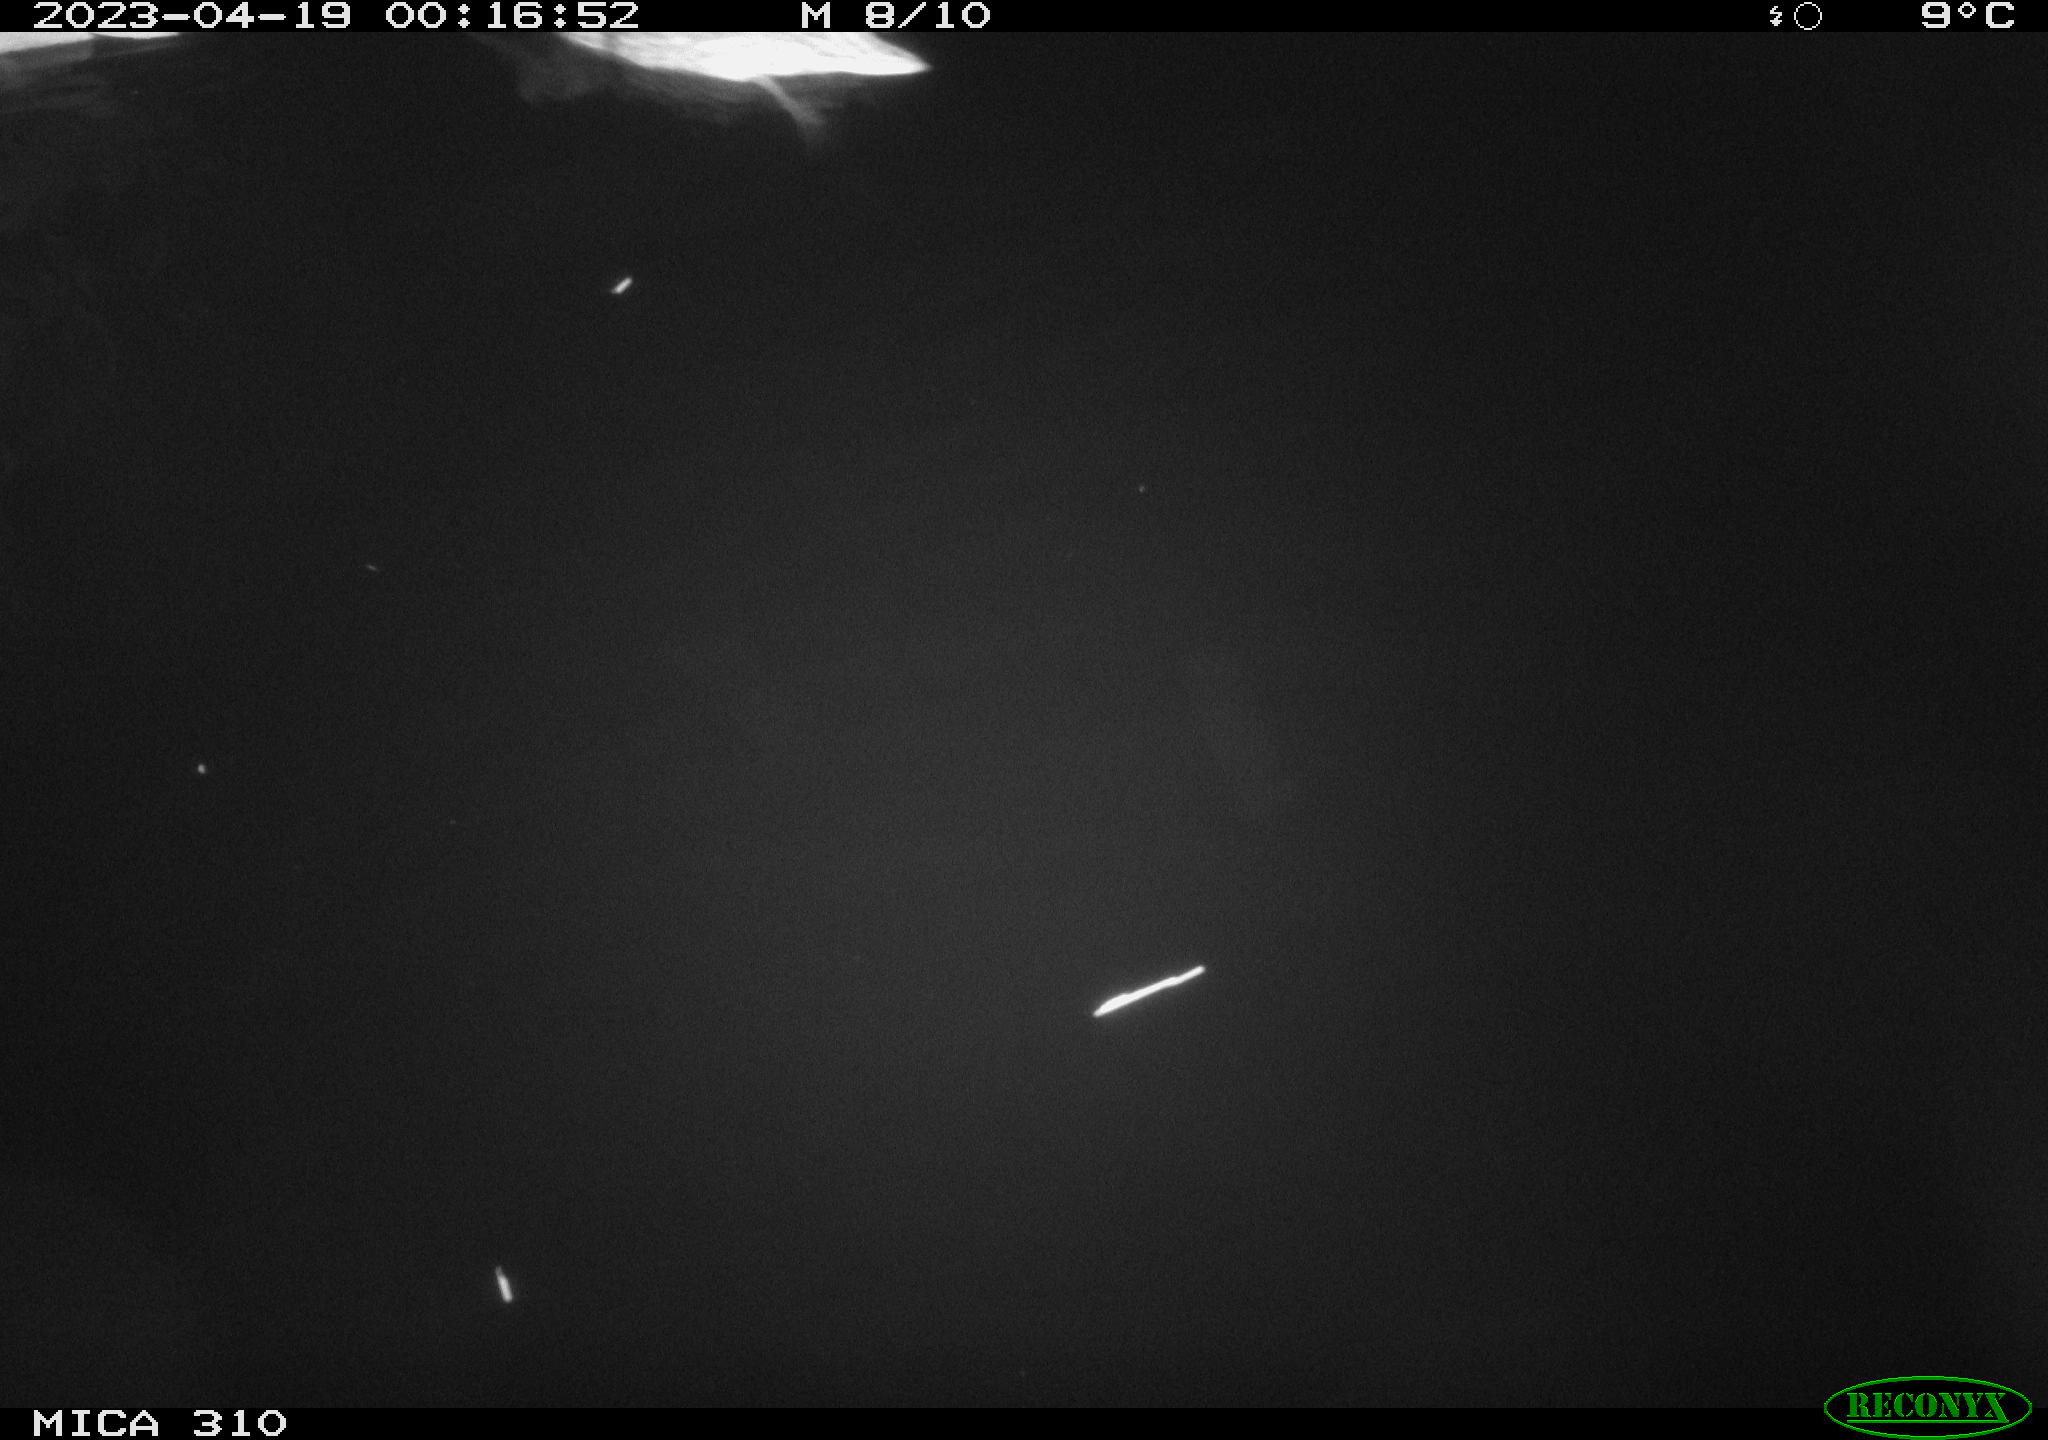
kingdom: Animalia
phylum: Chordata
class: Aves
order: Anseriformes
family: Anatidae
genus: Anas
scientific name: Anas
